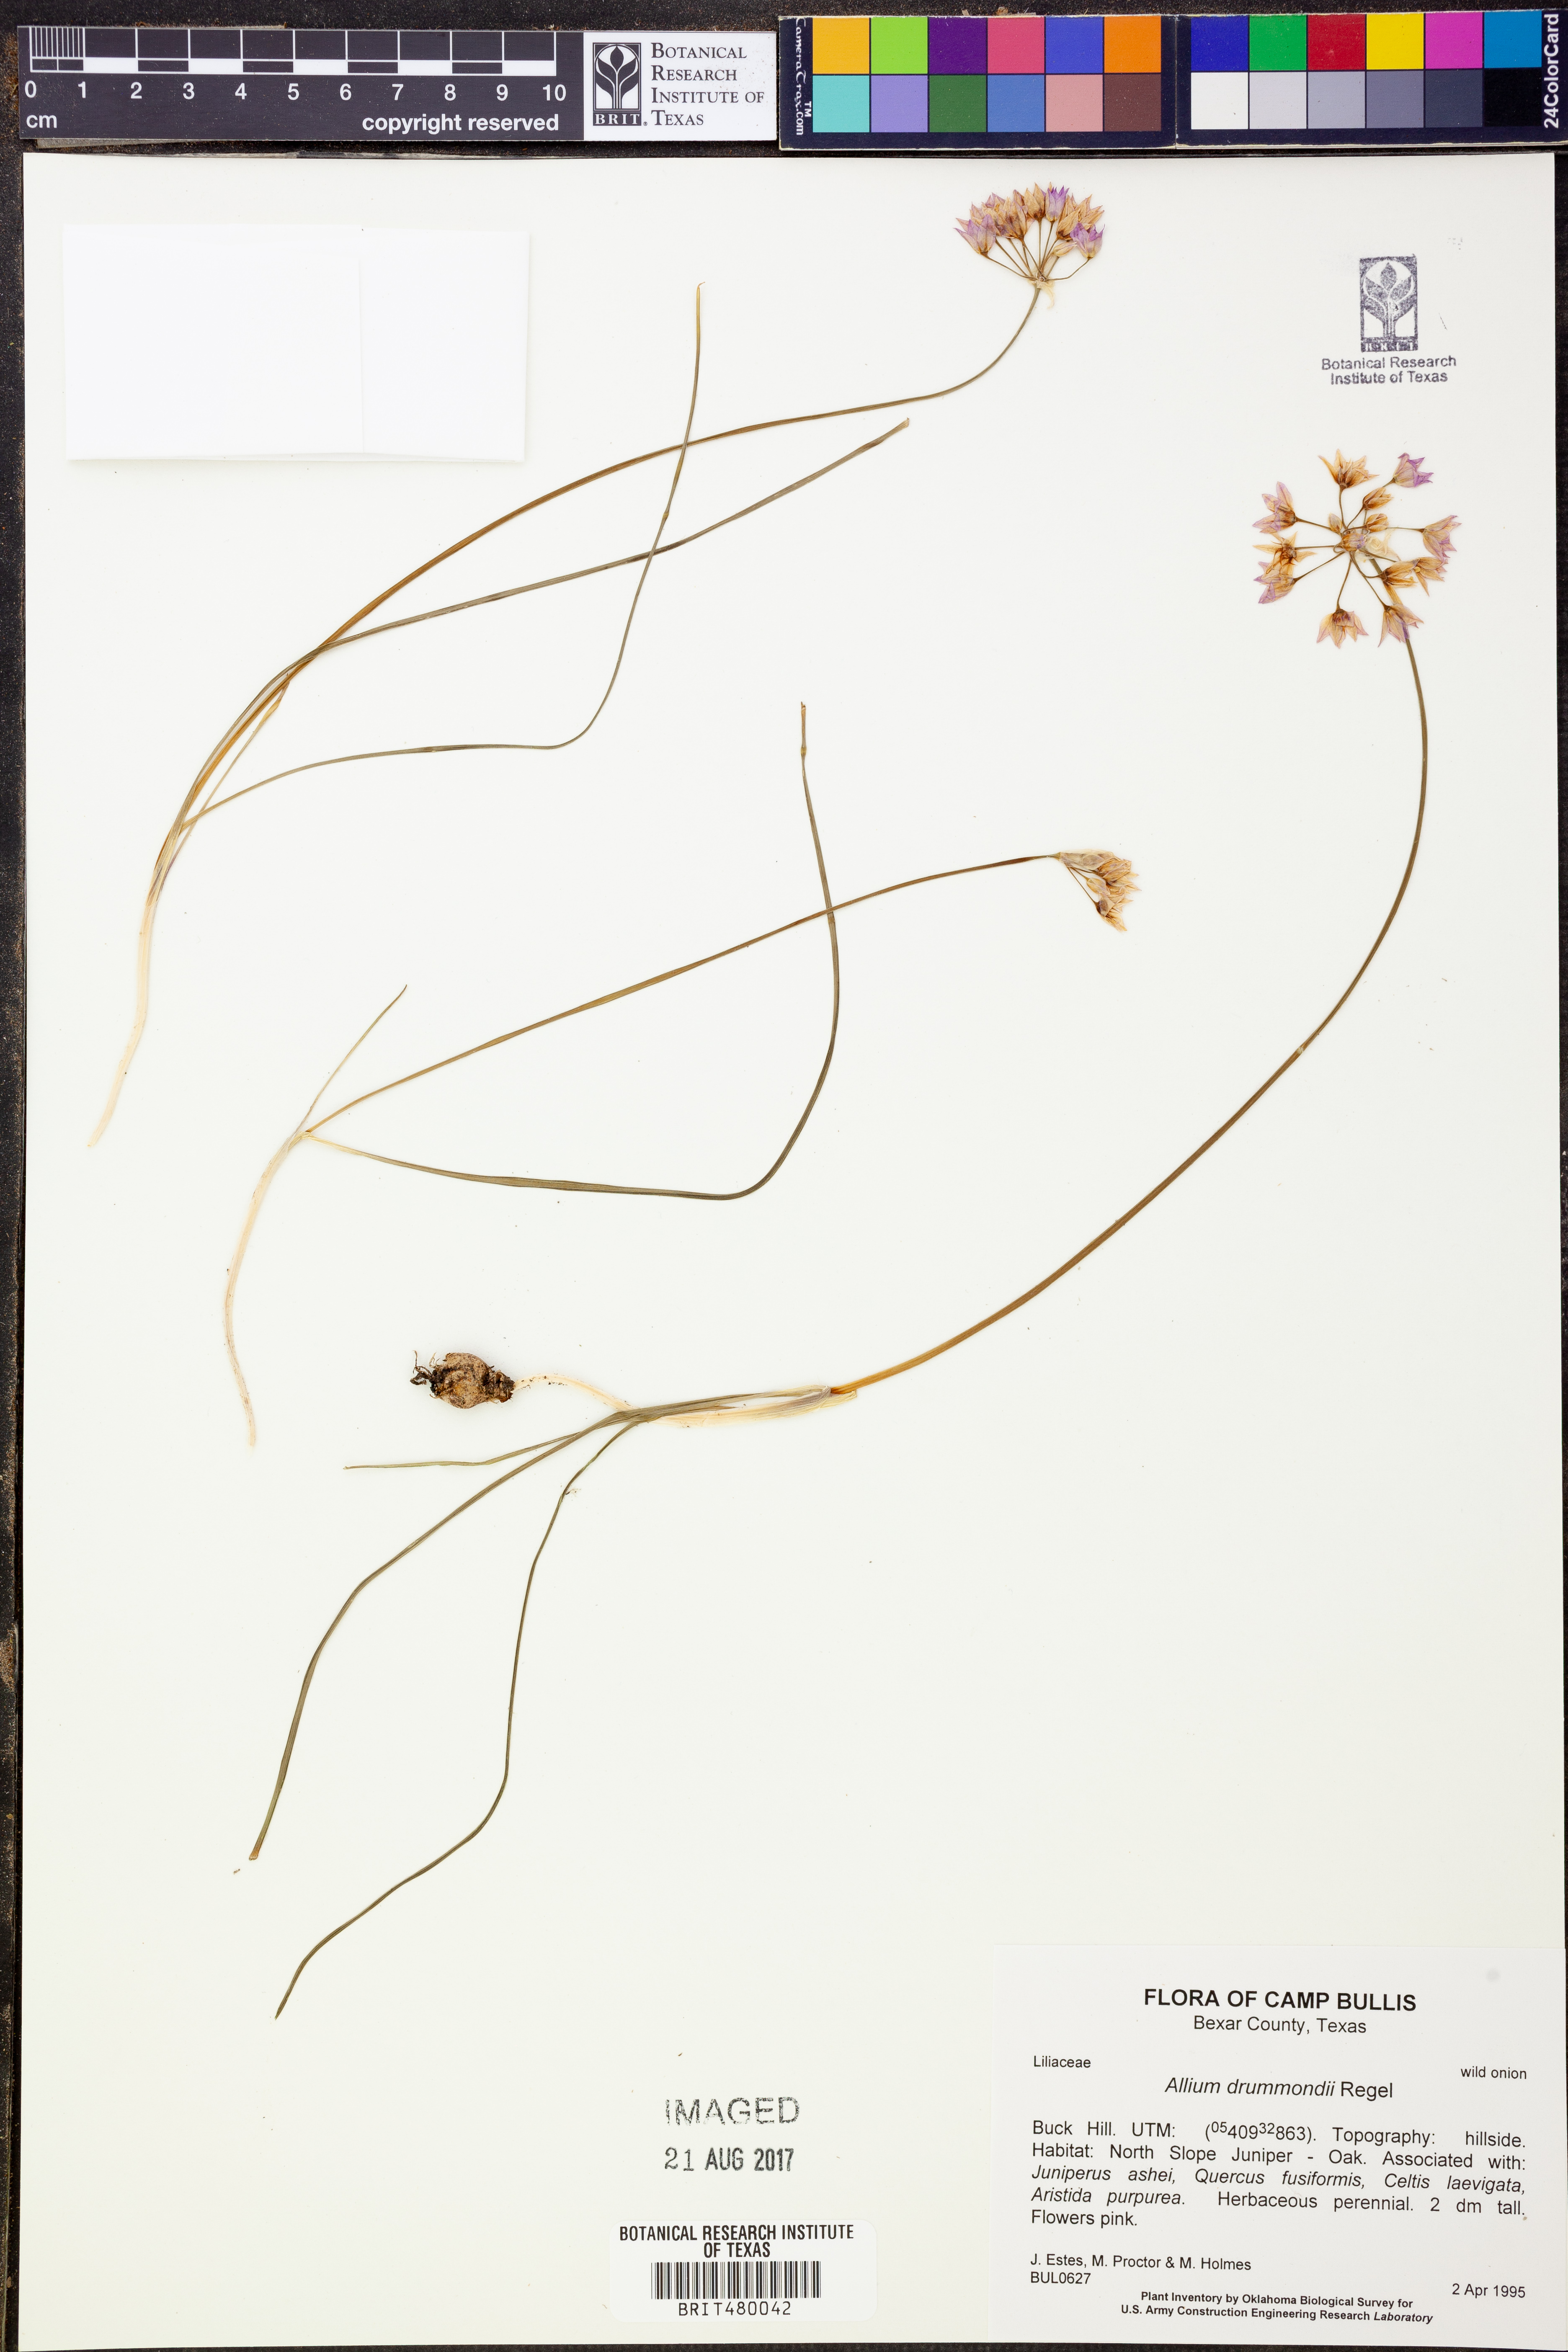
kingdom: Plantae
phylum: Tracheophyta
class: Liliopsida
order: Asparagales
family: Amaryllidaceae
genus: Allium
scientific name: Allium drummondii
